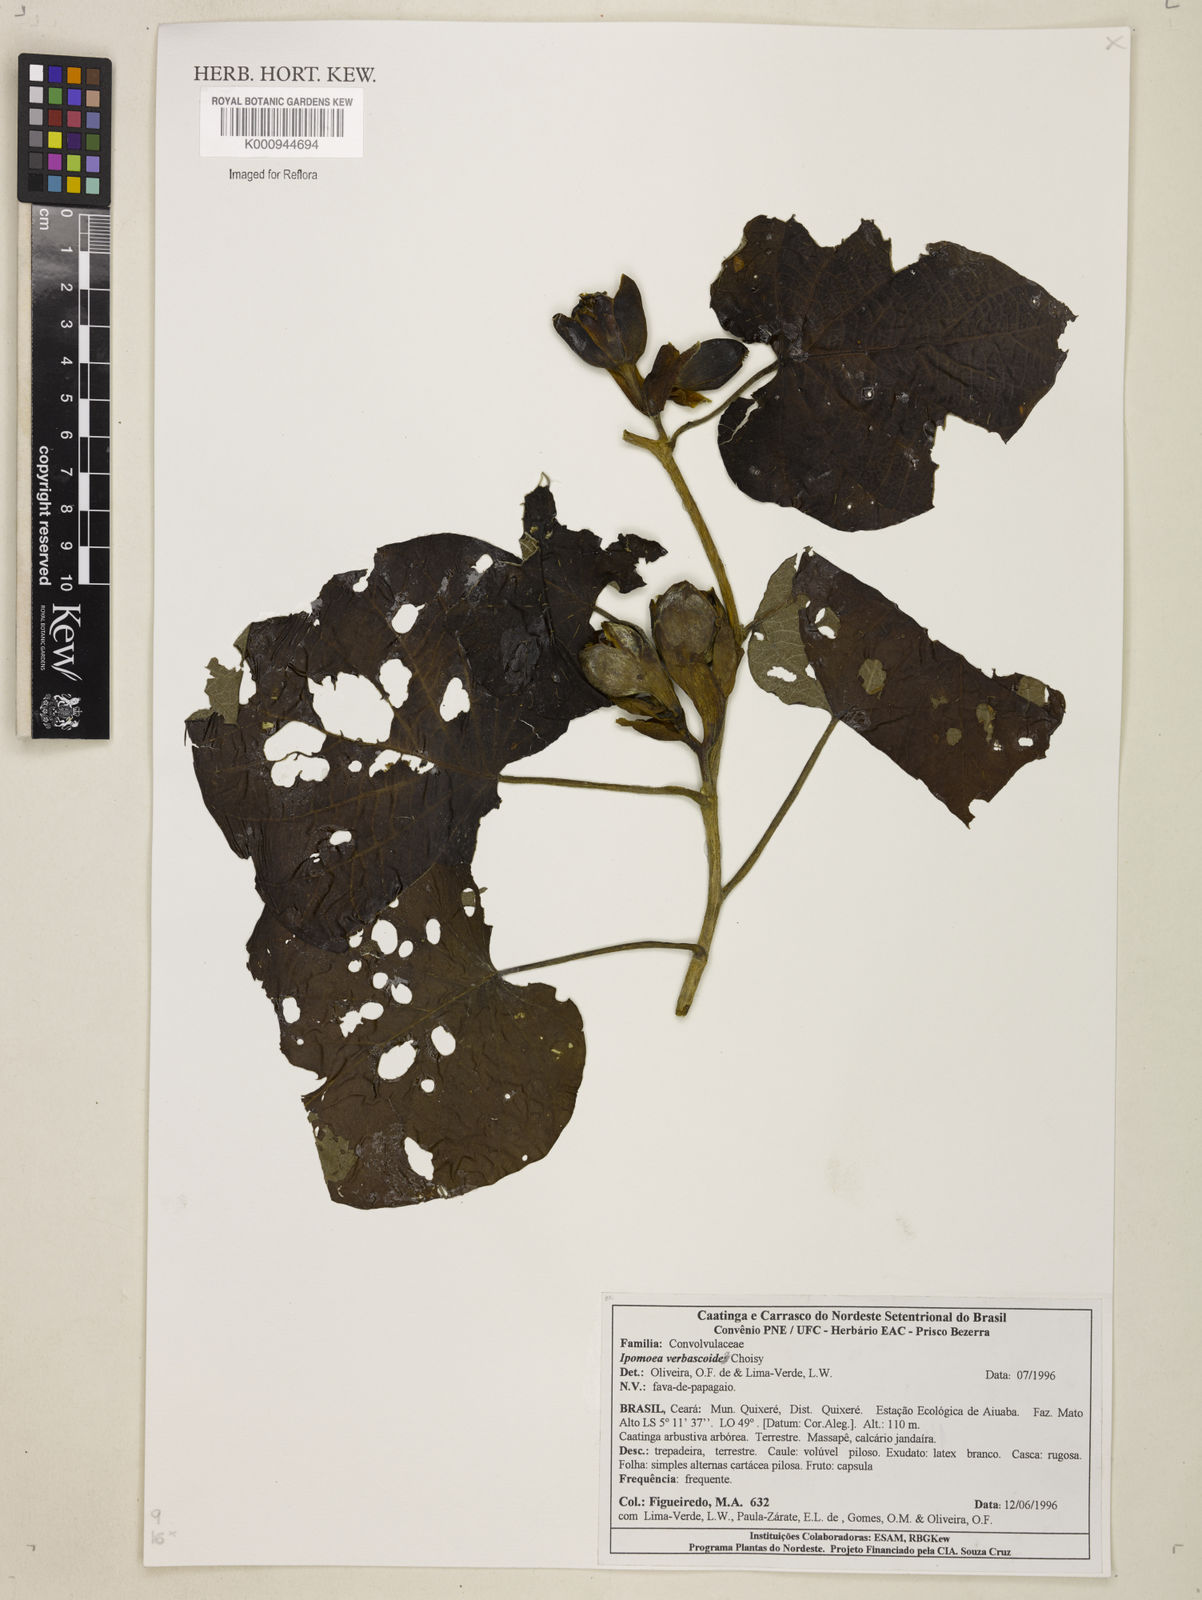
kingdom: Plantae
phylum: Tracheophyta
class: Magnoliopsida
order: Solanales
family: Convolvulaceae
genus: Ipomoea
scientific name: Ipomoea brasiliana
